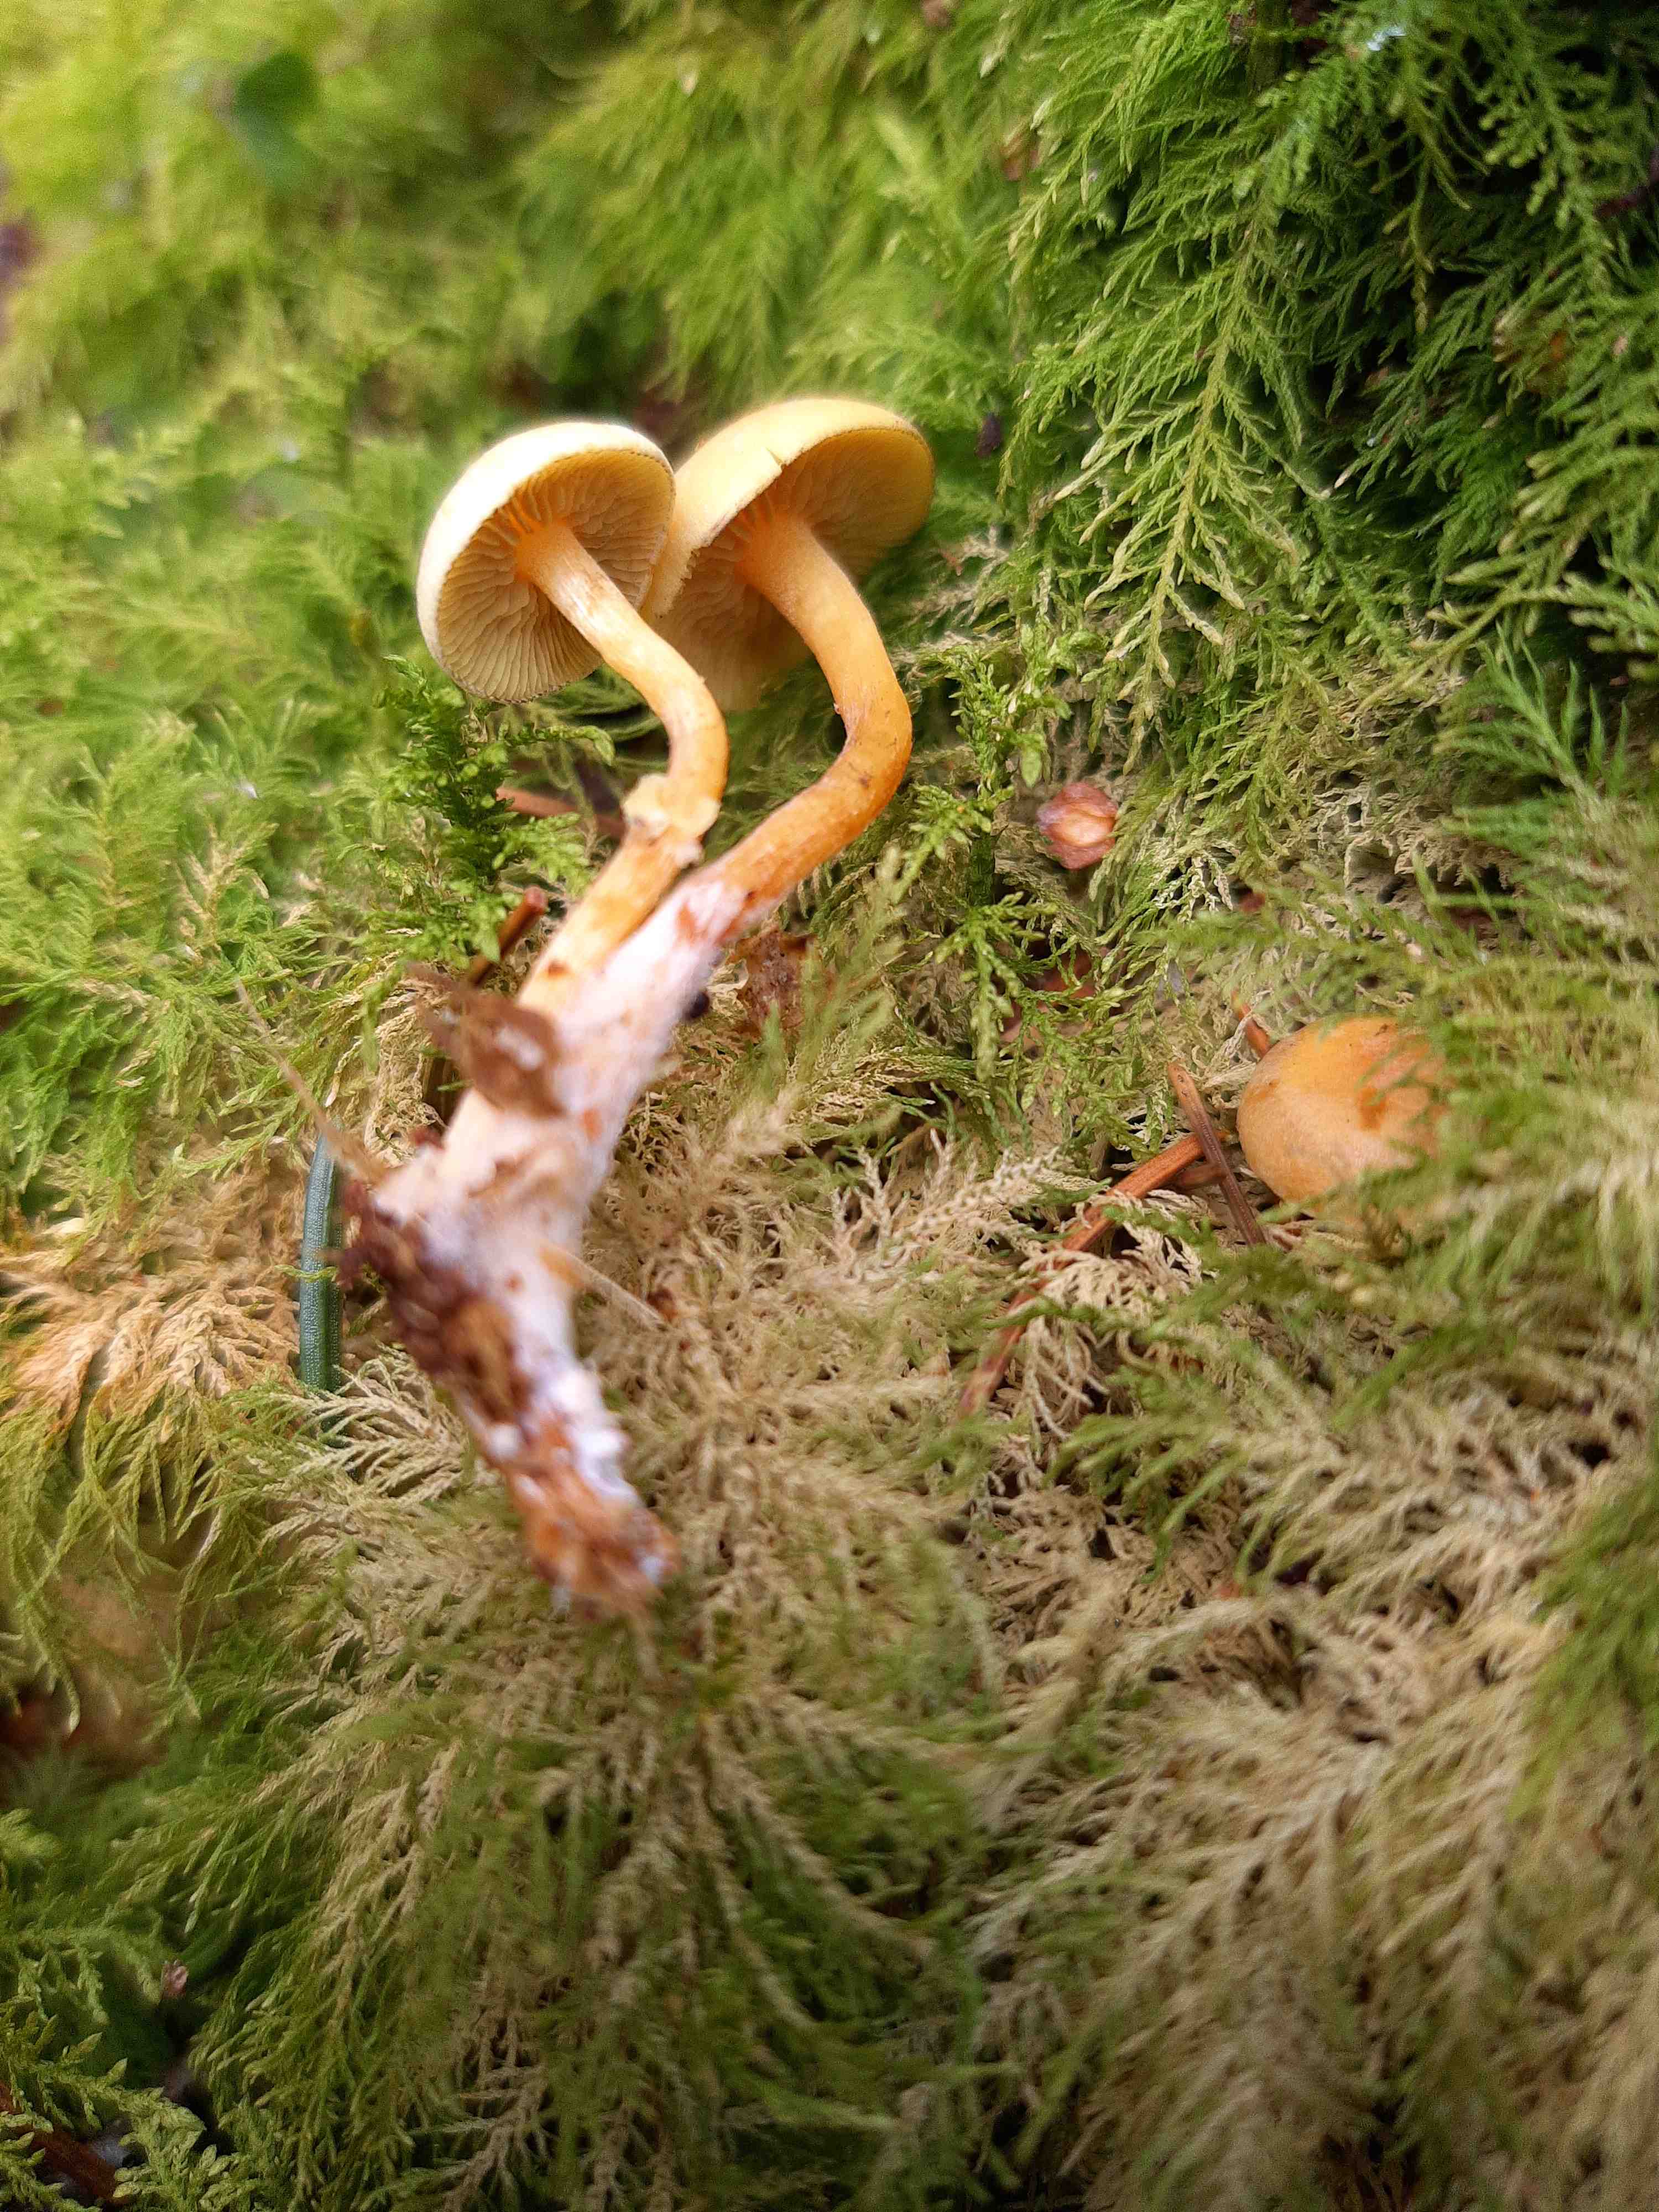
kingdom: Fungi
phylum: Basidiomycota
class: Agaricomycetes
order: Agaricales
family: Strophariaceae
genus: Hypholoma
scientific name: Hypholoma capnoides
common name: gran-svovlhat
